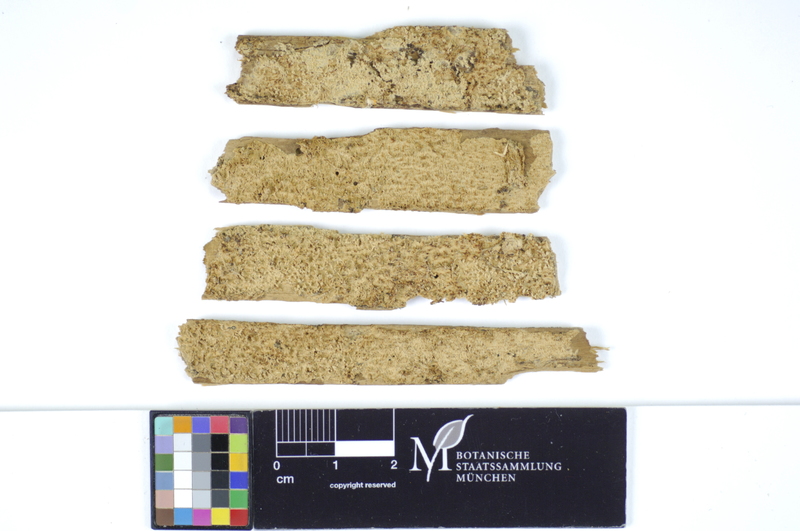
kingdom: Fungi
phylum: Basidiomycota
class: Agaricomycetes
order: Hymenochaetales
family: Schizoporaceae
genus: Alutaceodontia
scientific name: Alutaceodontia alutacea
